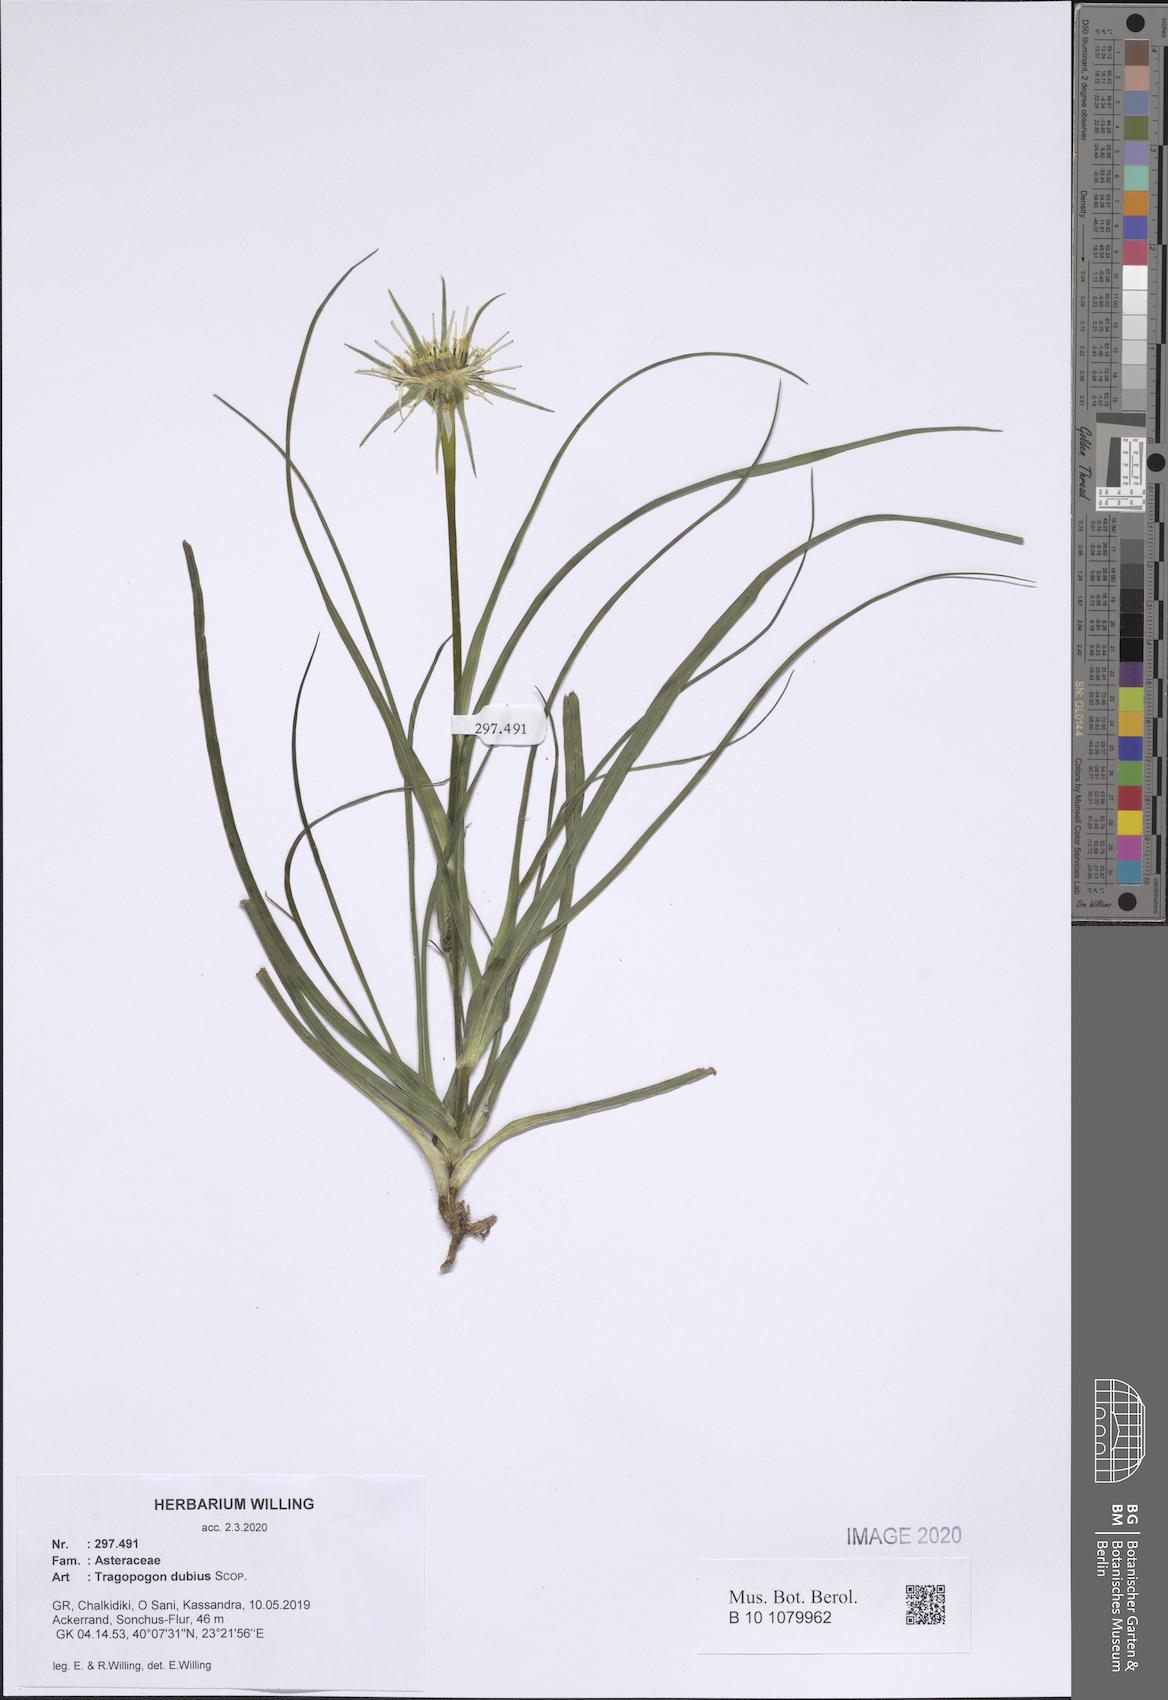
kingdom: Plantae
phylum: Tracheophyta
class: Magnoliopsida
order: Asterales
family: Asteraceae
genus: Tragopogon
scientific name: Tragopogon dubius
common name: Yellow salsify
